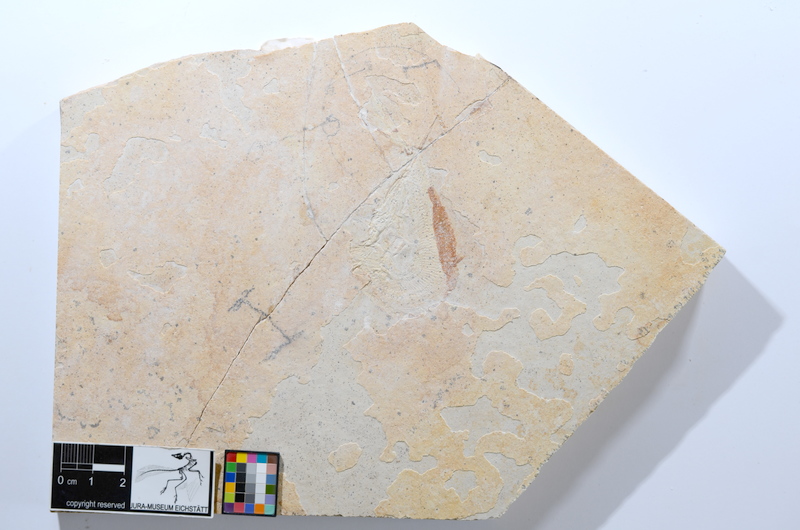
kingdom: Animalia
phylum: Chordata
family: Aspidorhynchidae
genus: Aspidorhynchus
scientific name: Aspidorhynchus acutirostris
